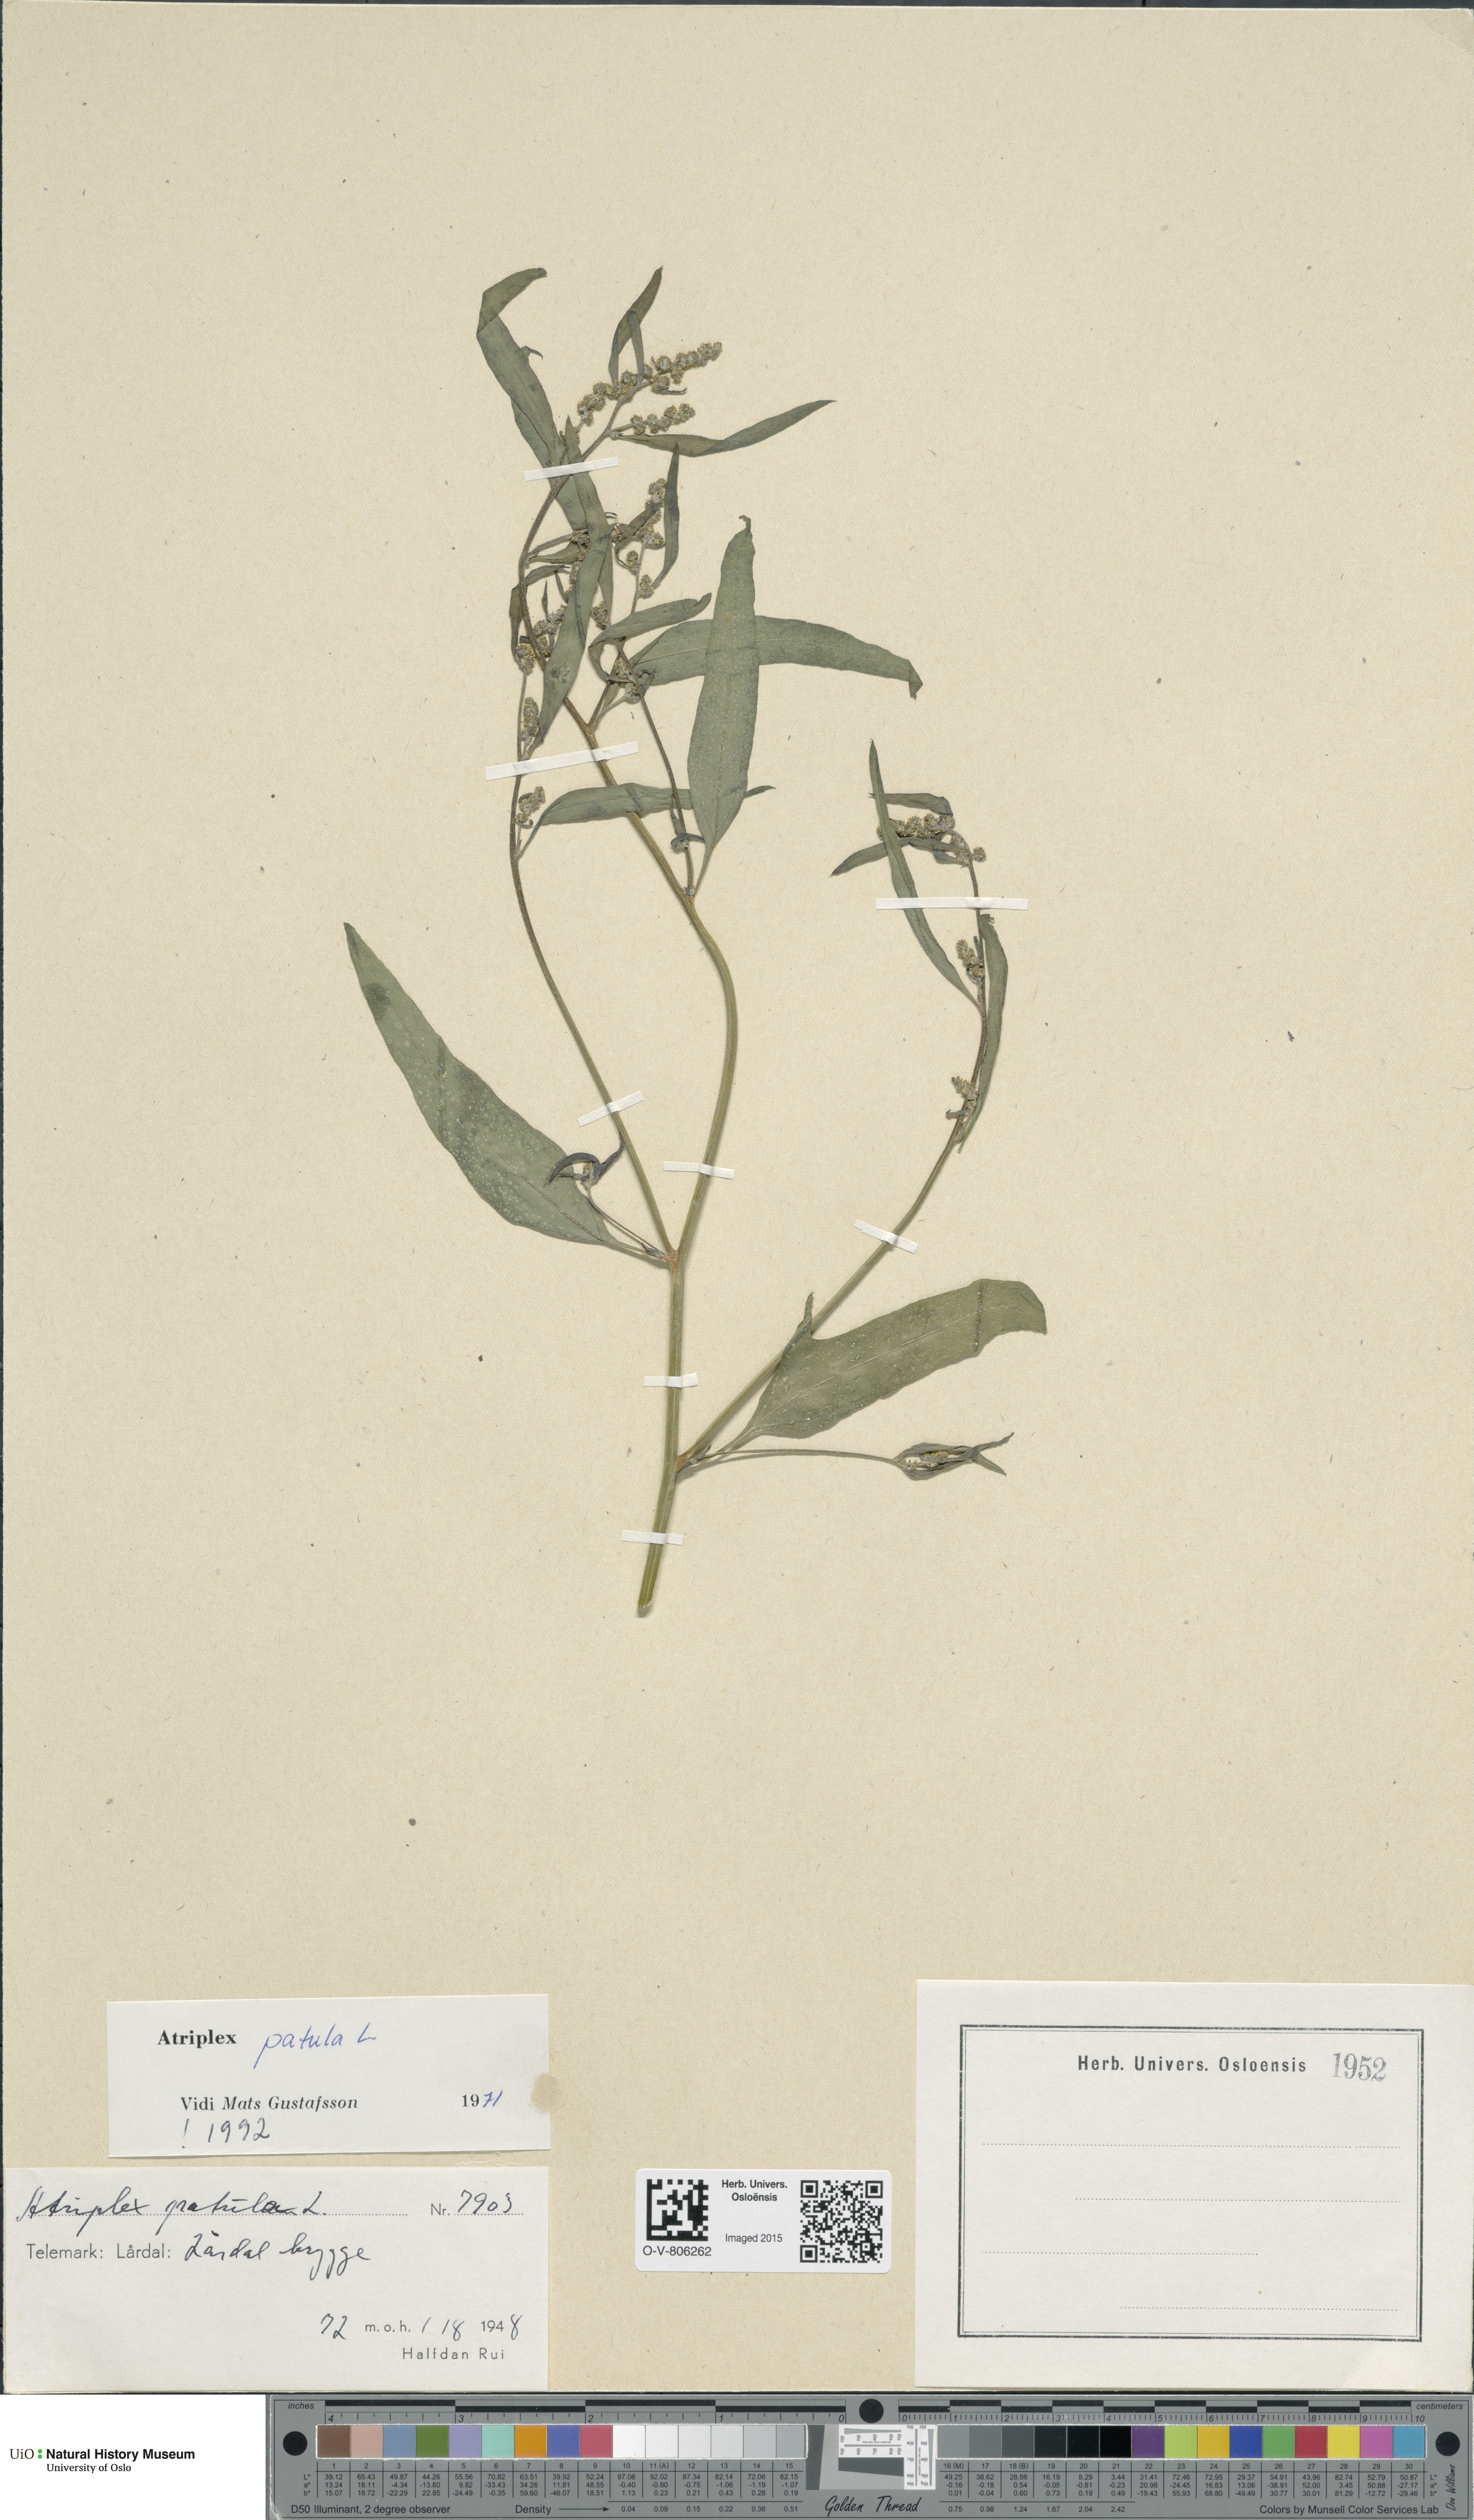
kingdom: Plantae
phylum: Tracheophyta
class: Magnoliopsida
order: Caryophyllales
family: Amaranthaceae
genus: Atriplex
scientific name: Atriplex patula
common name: Common orache
